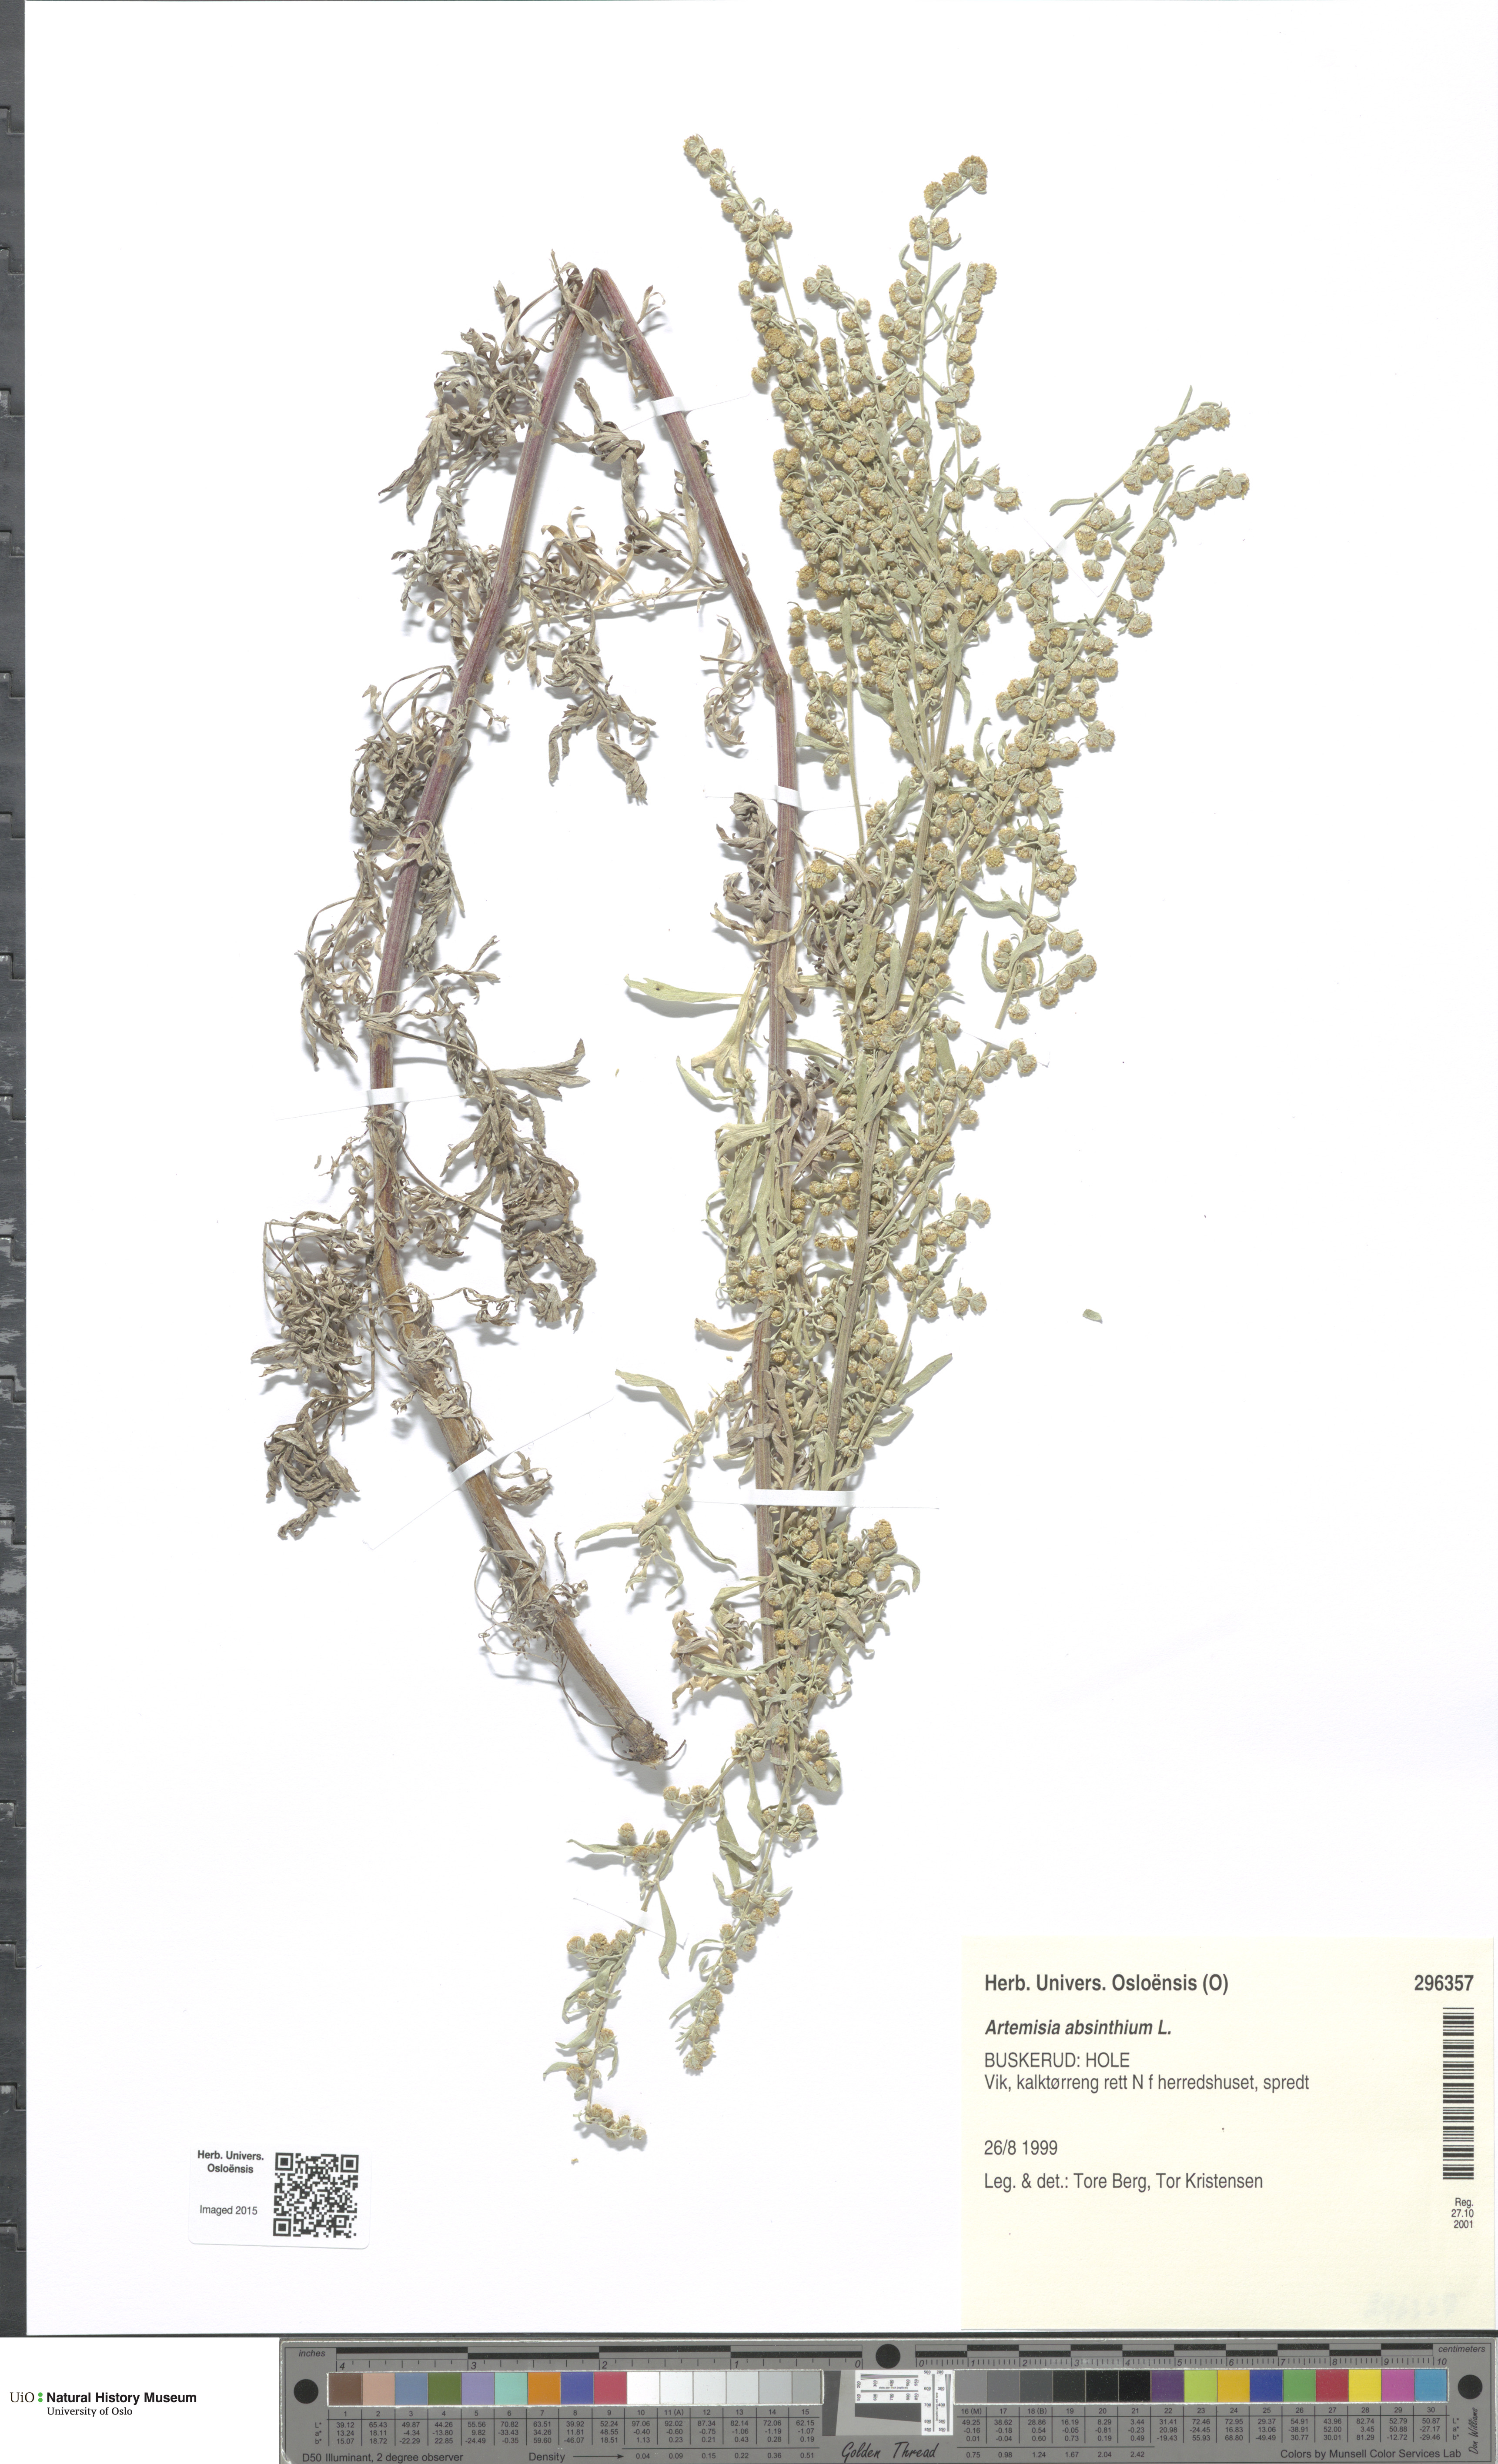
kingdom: Plantae
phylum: Tracheophyta
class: Magnoliopsida
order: Asterales
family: Asteraceae
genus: Artemisia
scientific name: Artemisia absinthium
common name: Wormwood
